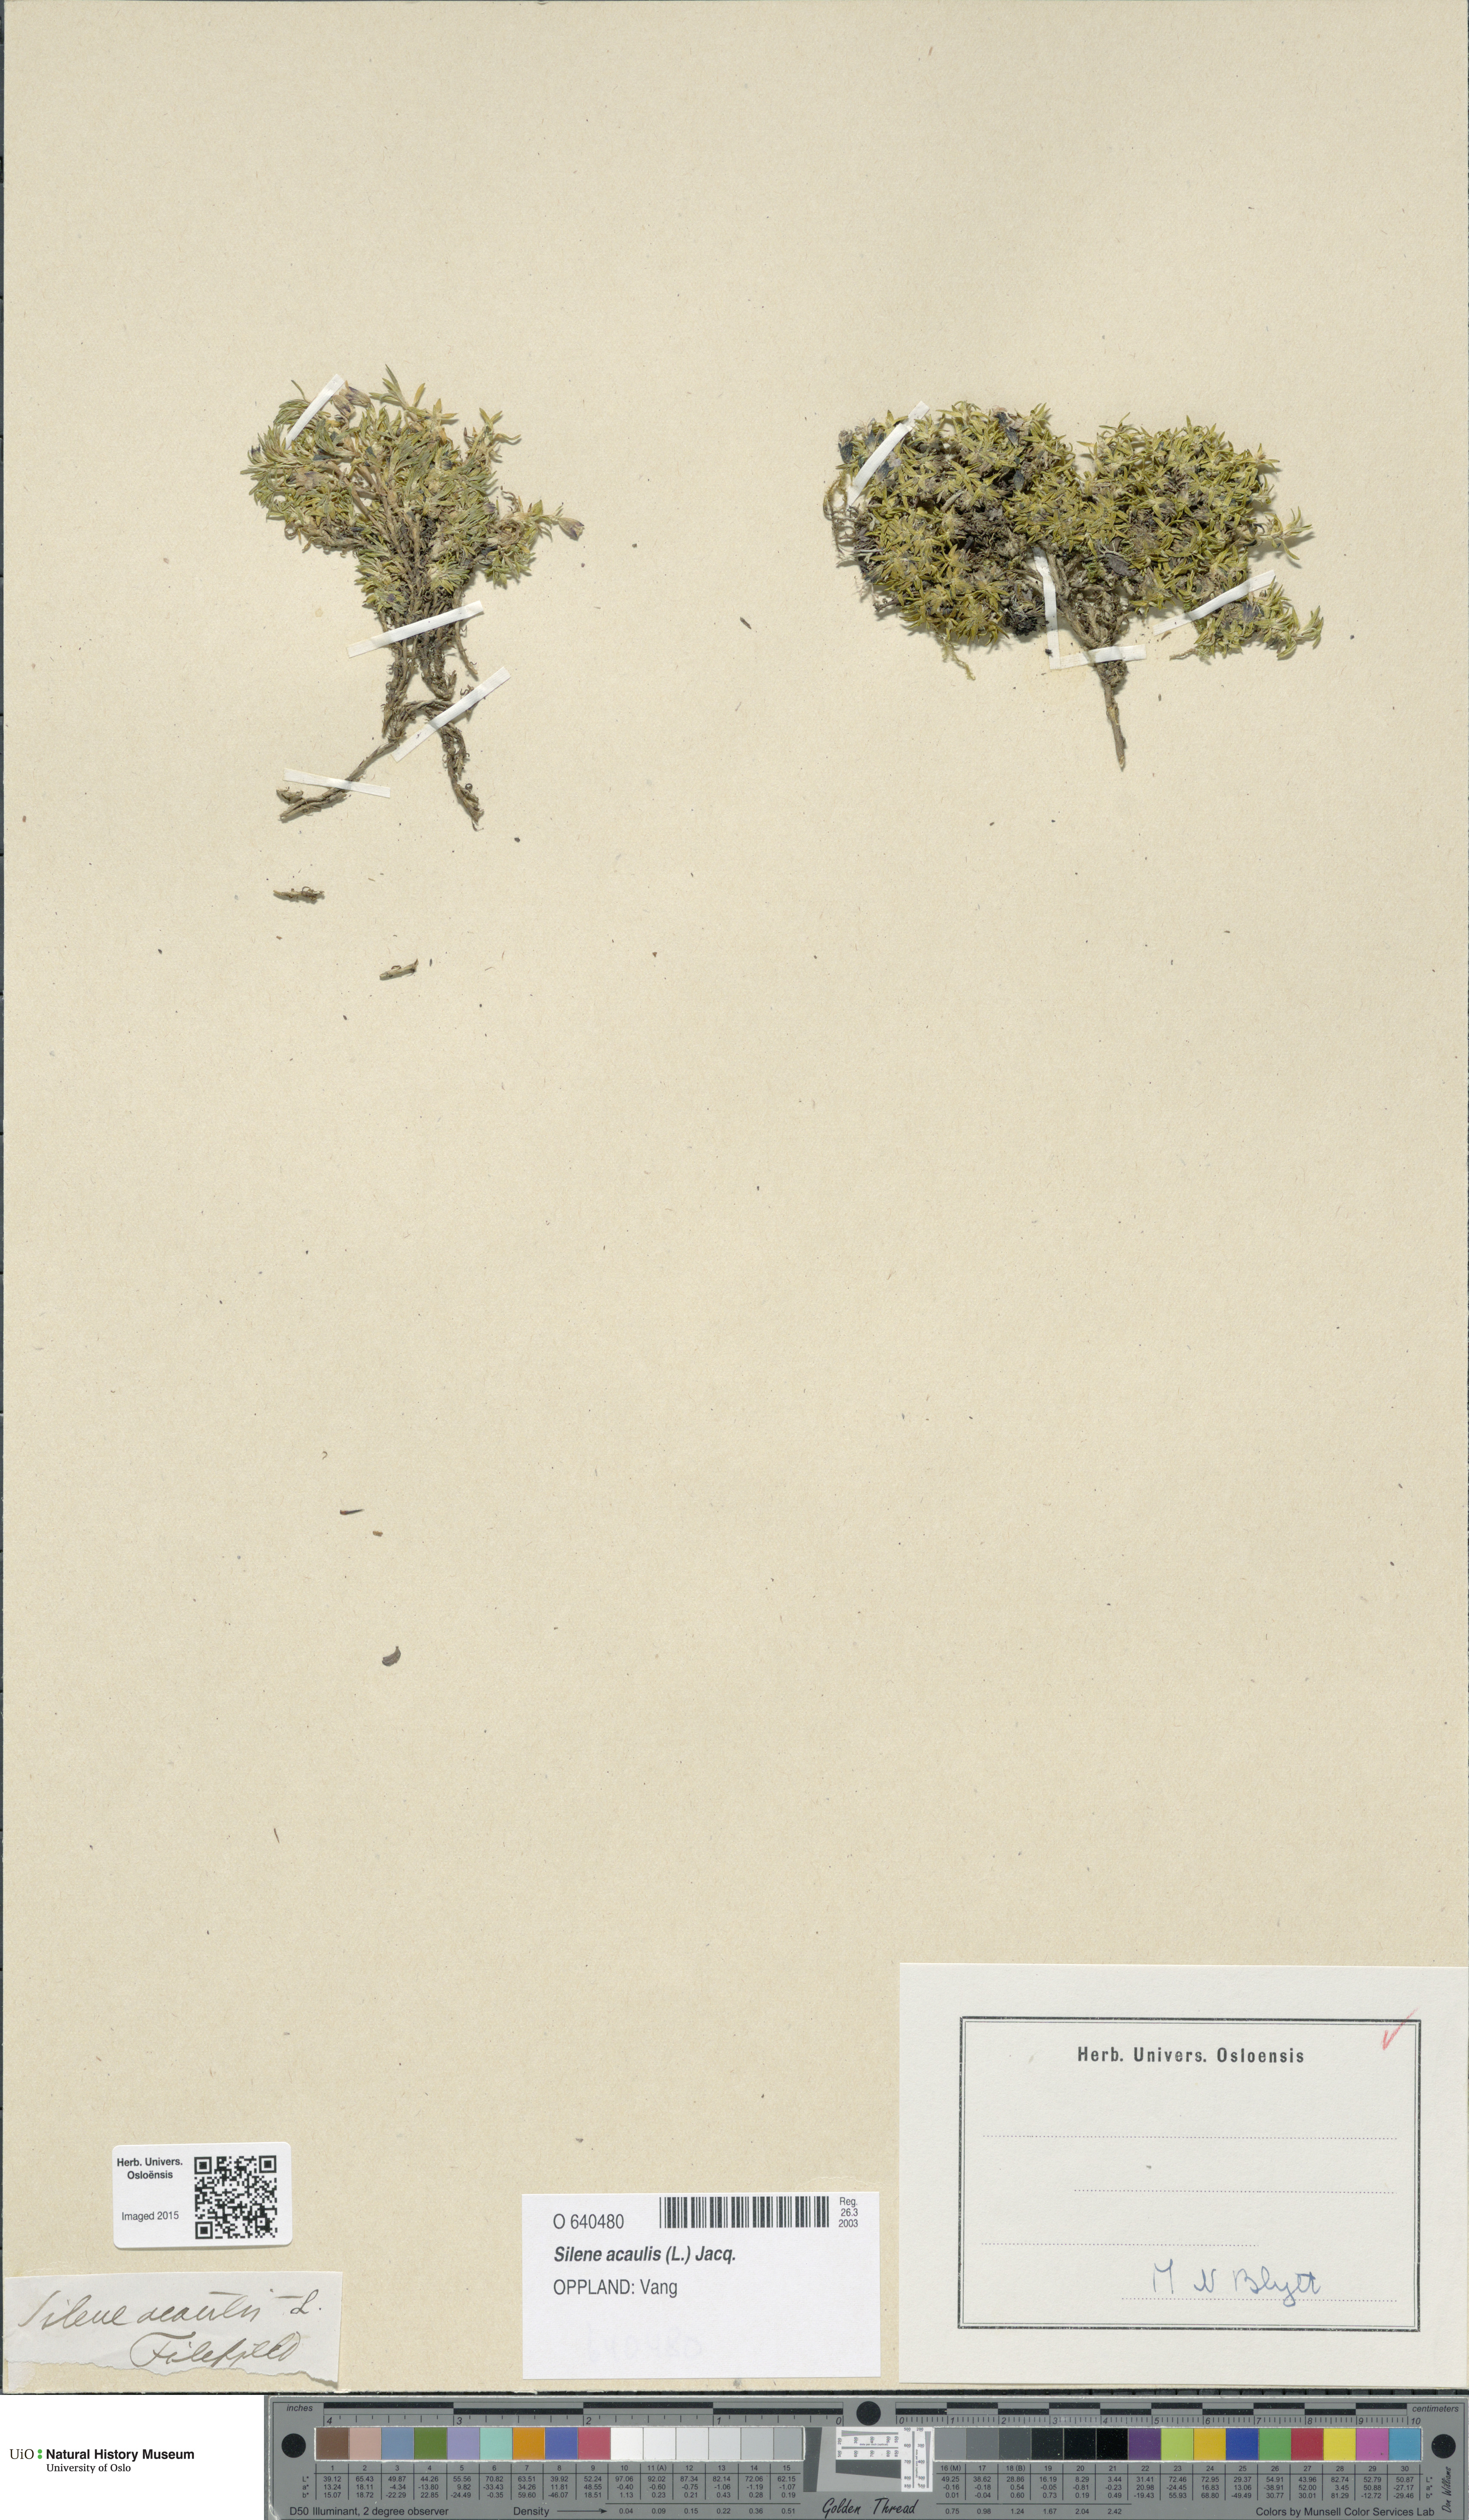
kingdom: Plantae
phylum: Tracheophyta
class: Magnoliopsida
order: Caryophyllales
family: Caryophyllaceae
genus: Silene
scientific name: Silene acaulis
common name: Moss campion
